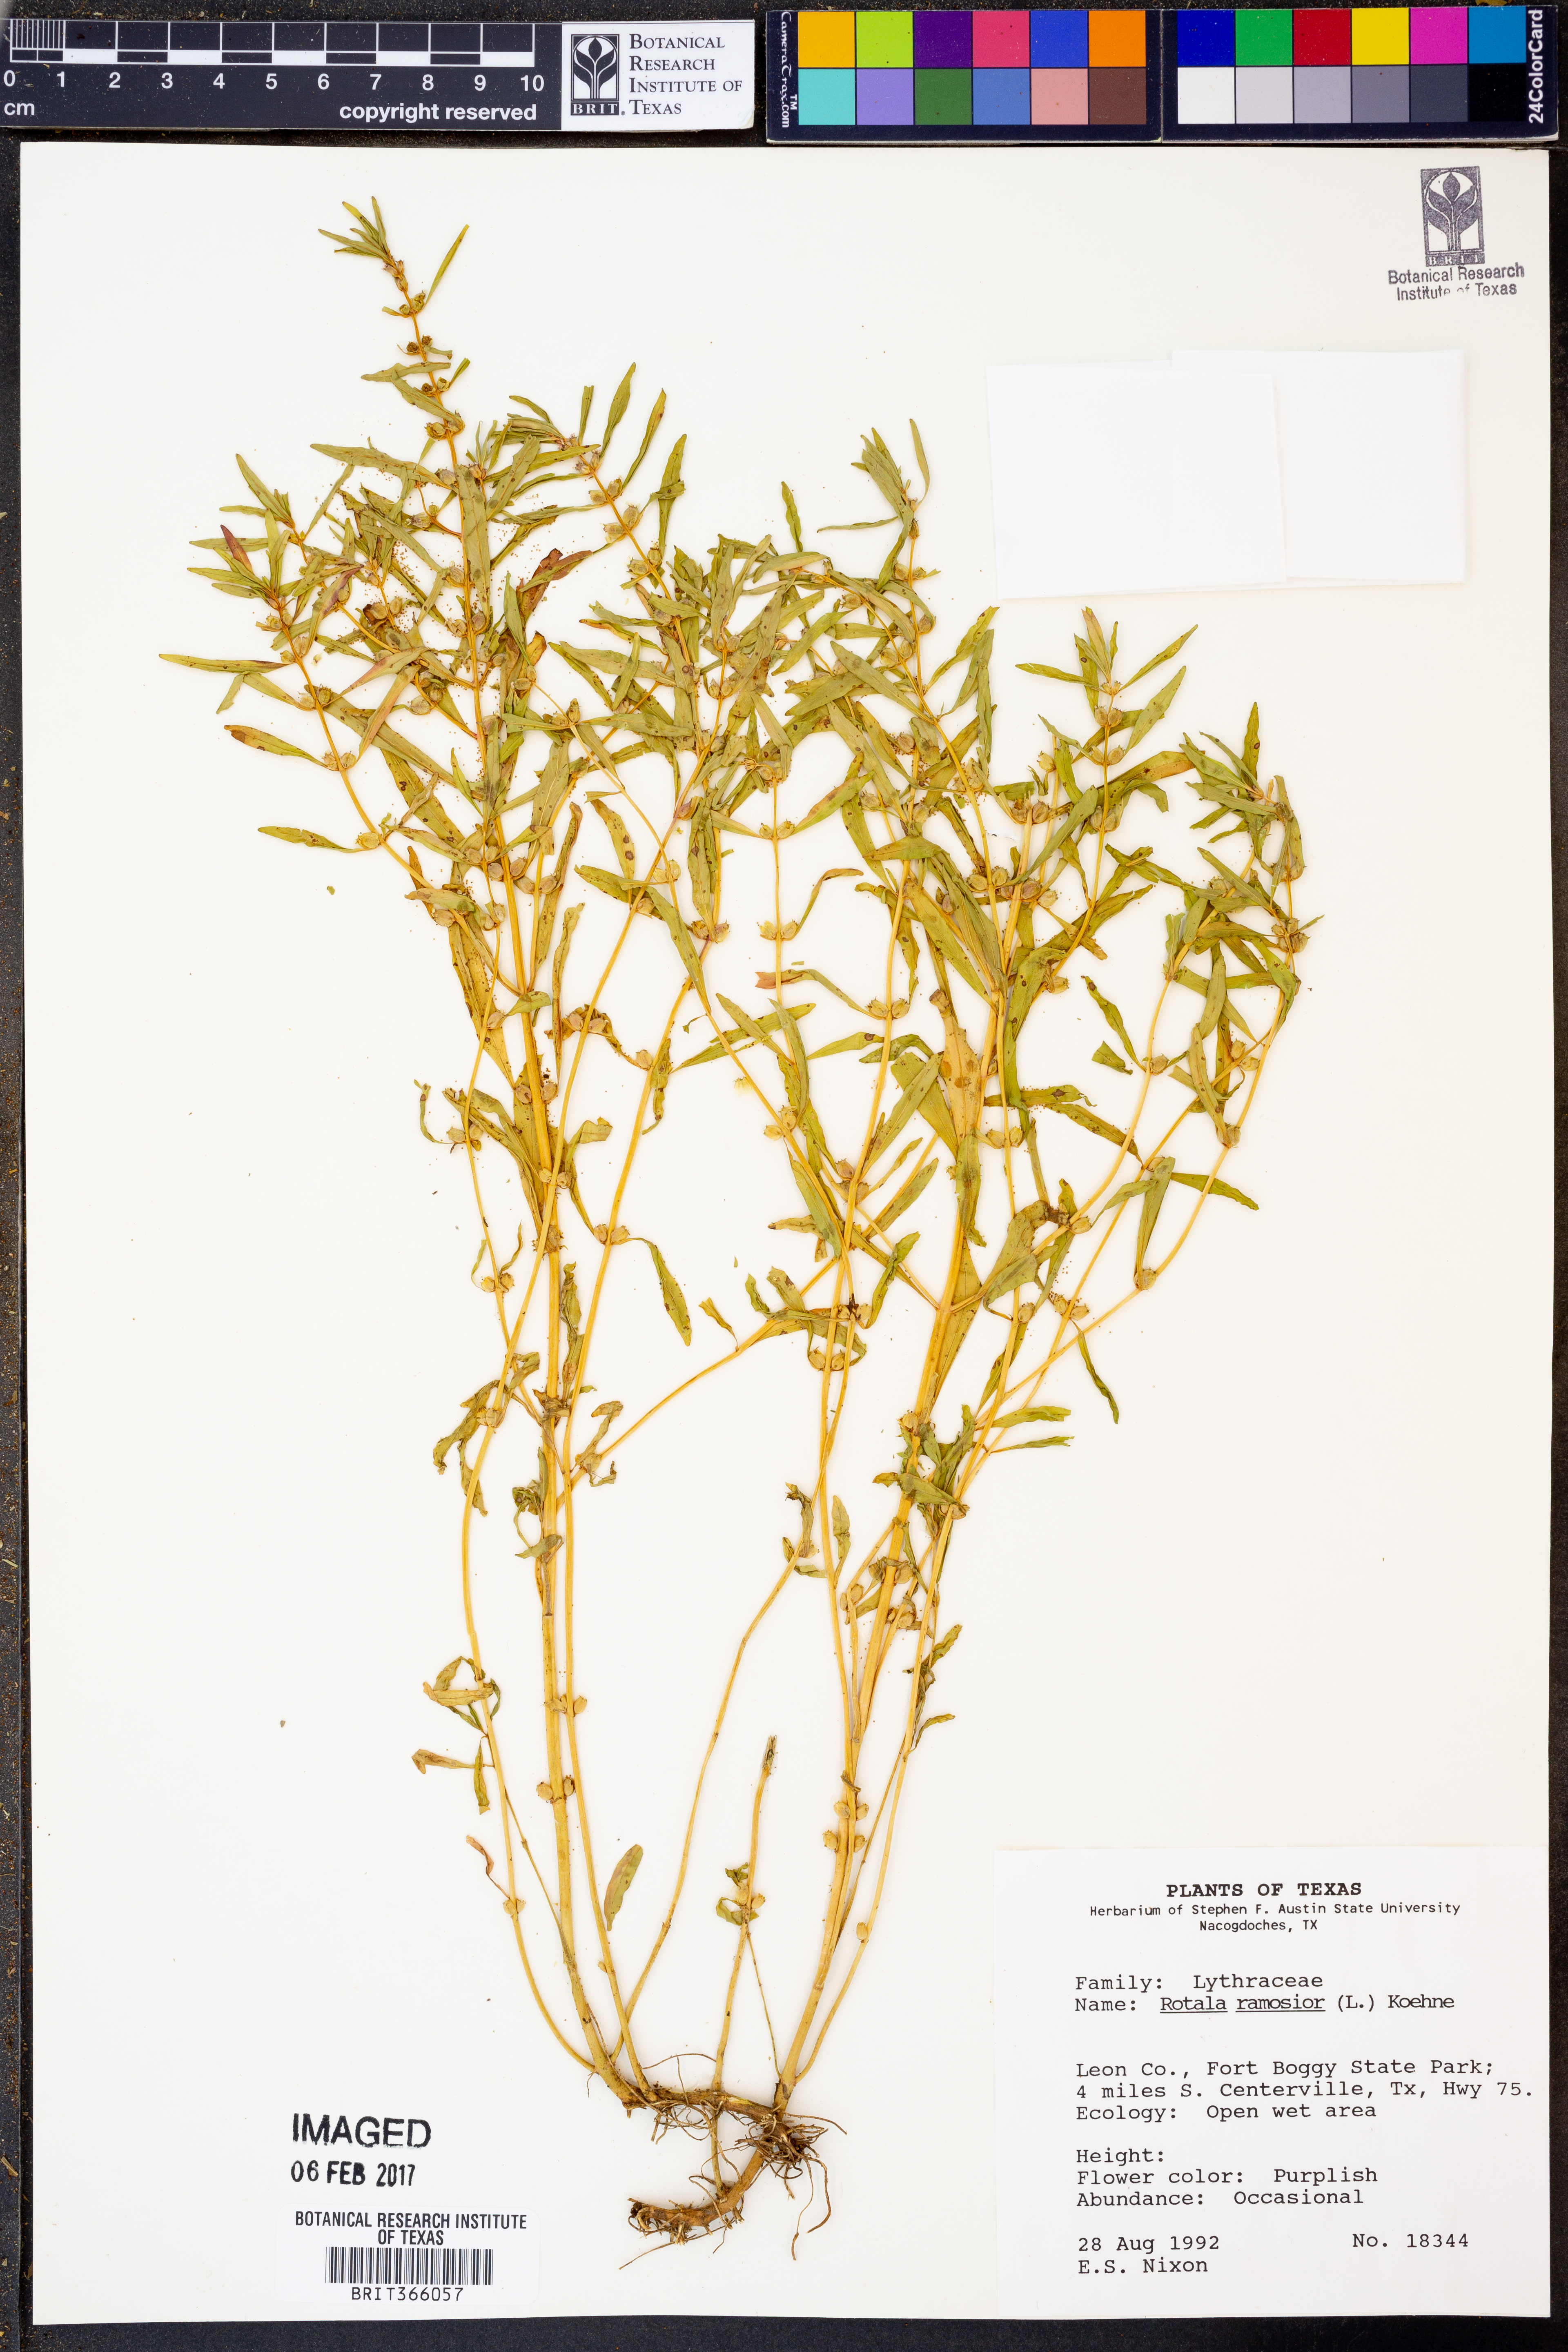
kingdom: Plantae
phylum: Tracheophyta
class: Magnoliopsida
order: Myrtales
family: Lythraceae
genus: Rotala
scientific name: Rotala ramosior
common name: Lowland rotala
